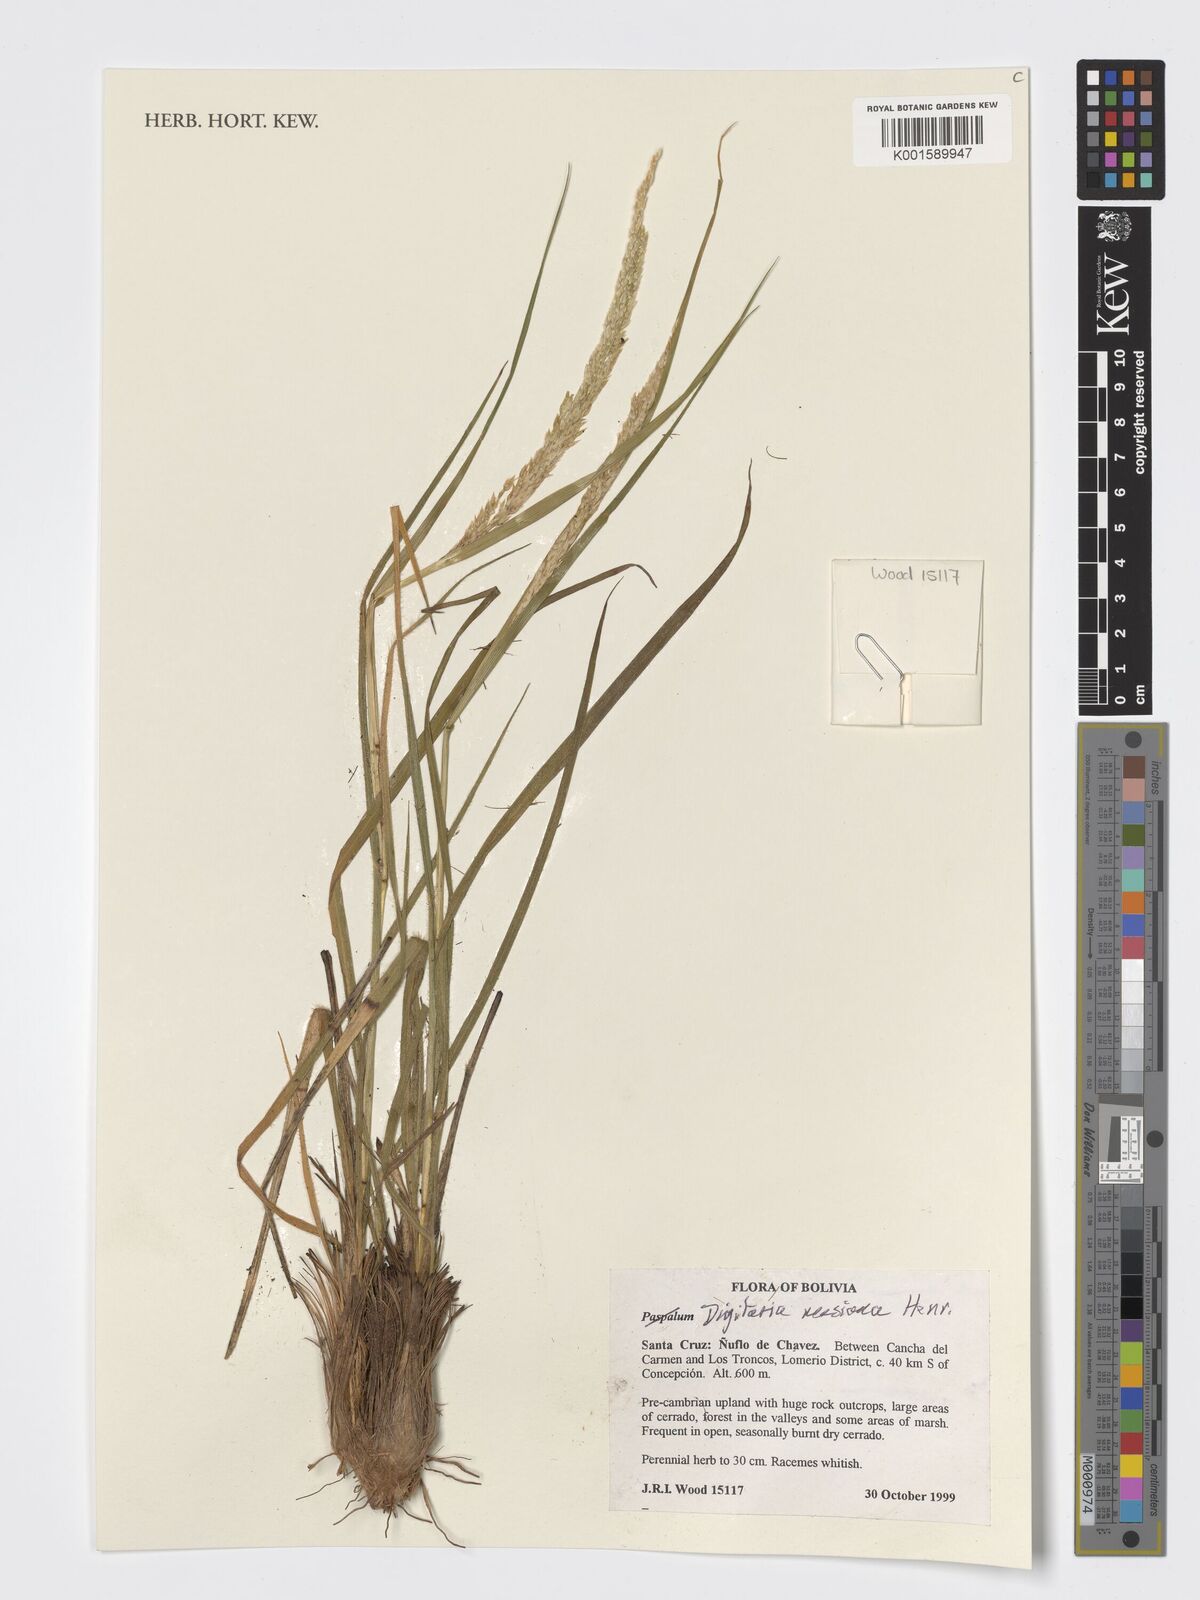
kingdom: Plantae
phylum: Tracheophyta
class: Liliopsida
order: Poales
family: Poaceae
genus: Digitaria
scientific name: Digitaria neesiana
